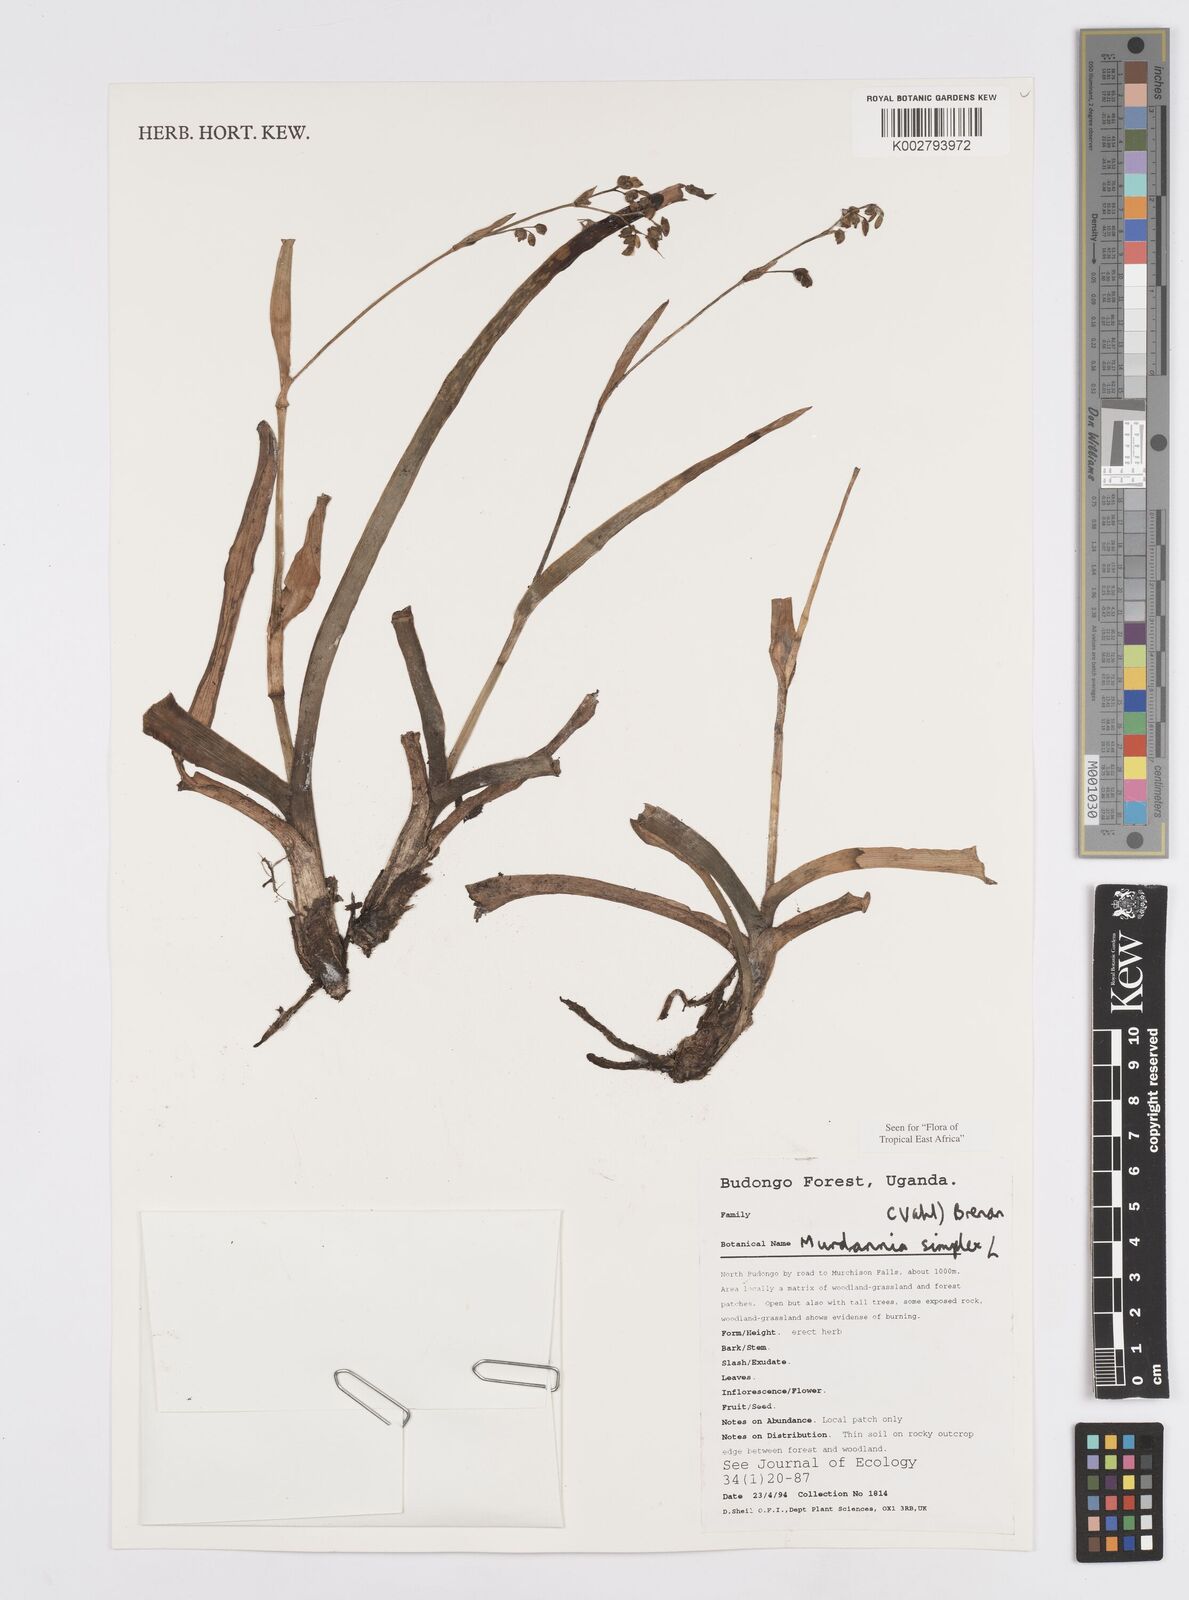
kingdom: Plantae
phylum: Tracheophyta
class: Liliopsida
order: Commelinales
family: Commelinaceae
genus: Murdannia
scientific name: Murdannia simplex
